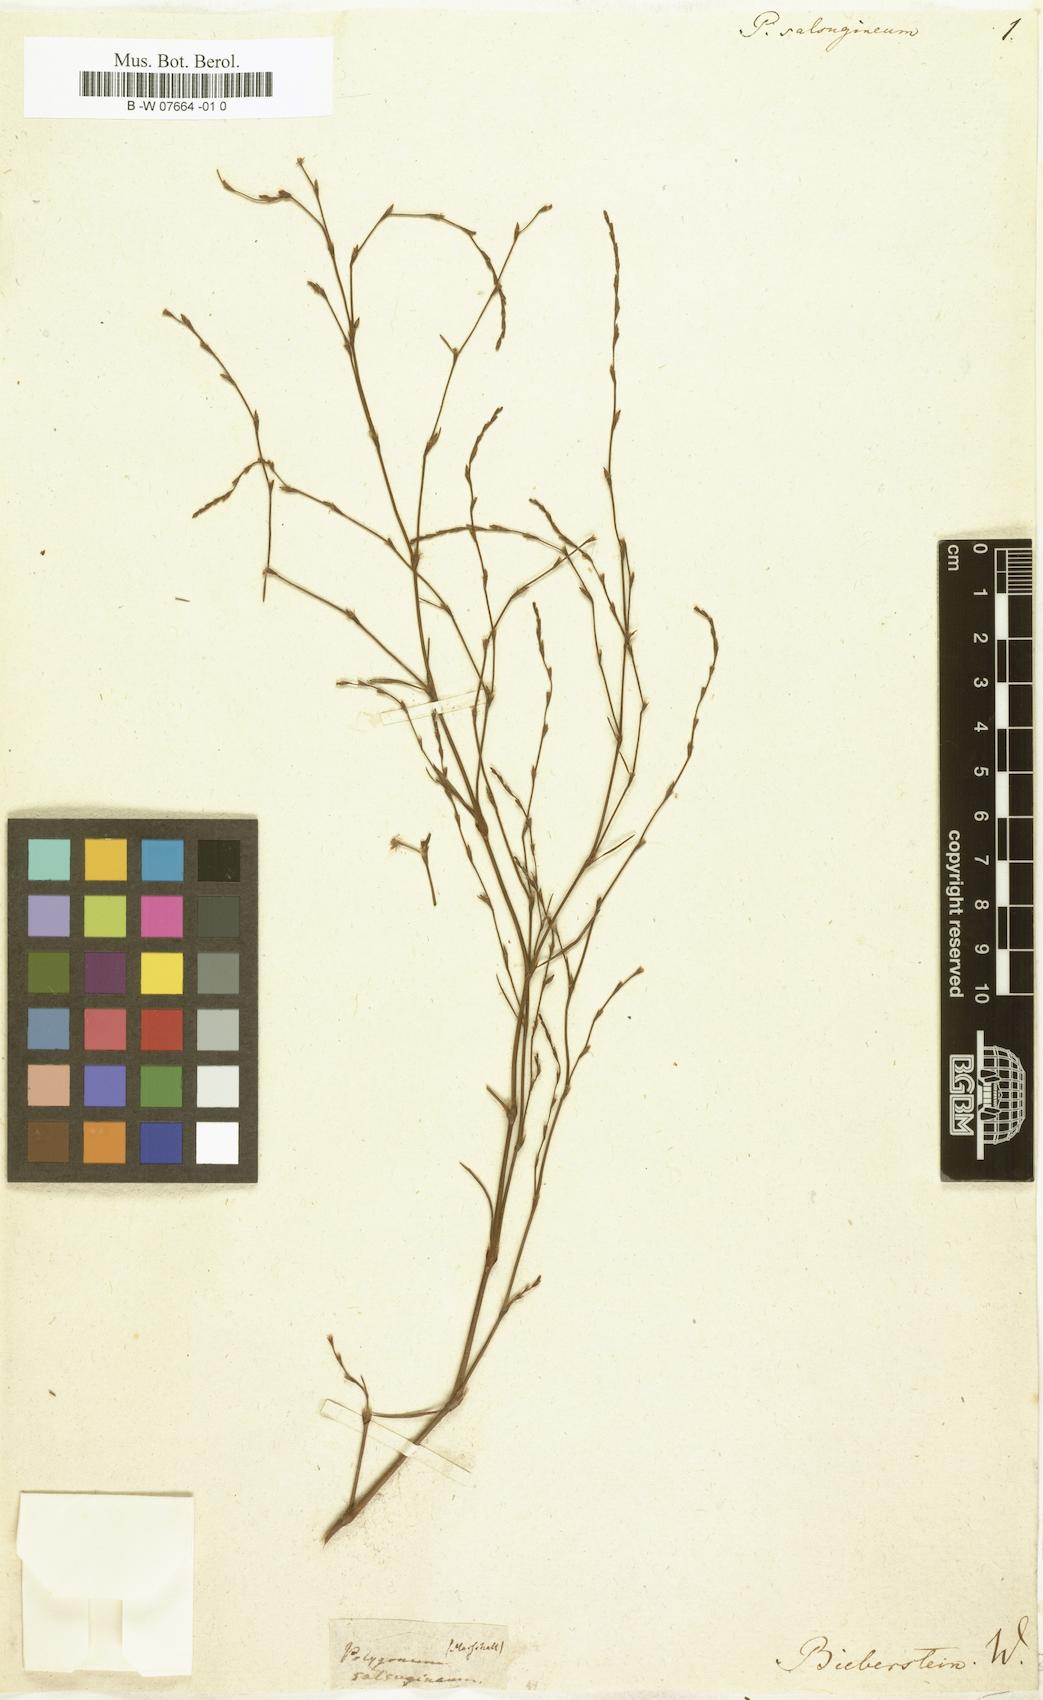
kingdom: Plantae
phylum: Tracheophyta
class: Magnoliopsida
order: Caryophyllales
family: Polygonaceae
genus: Polygonum
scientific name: Polygonum salsugineum
